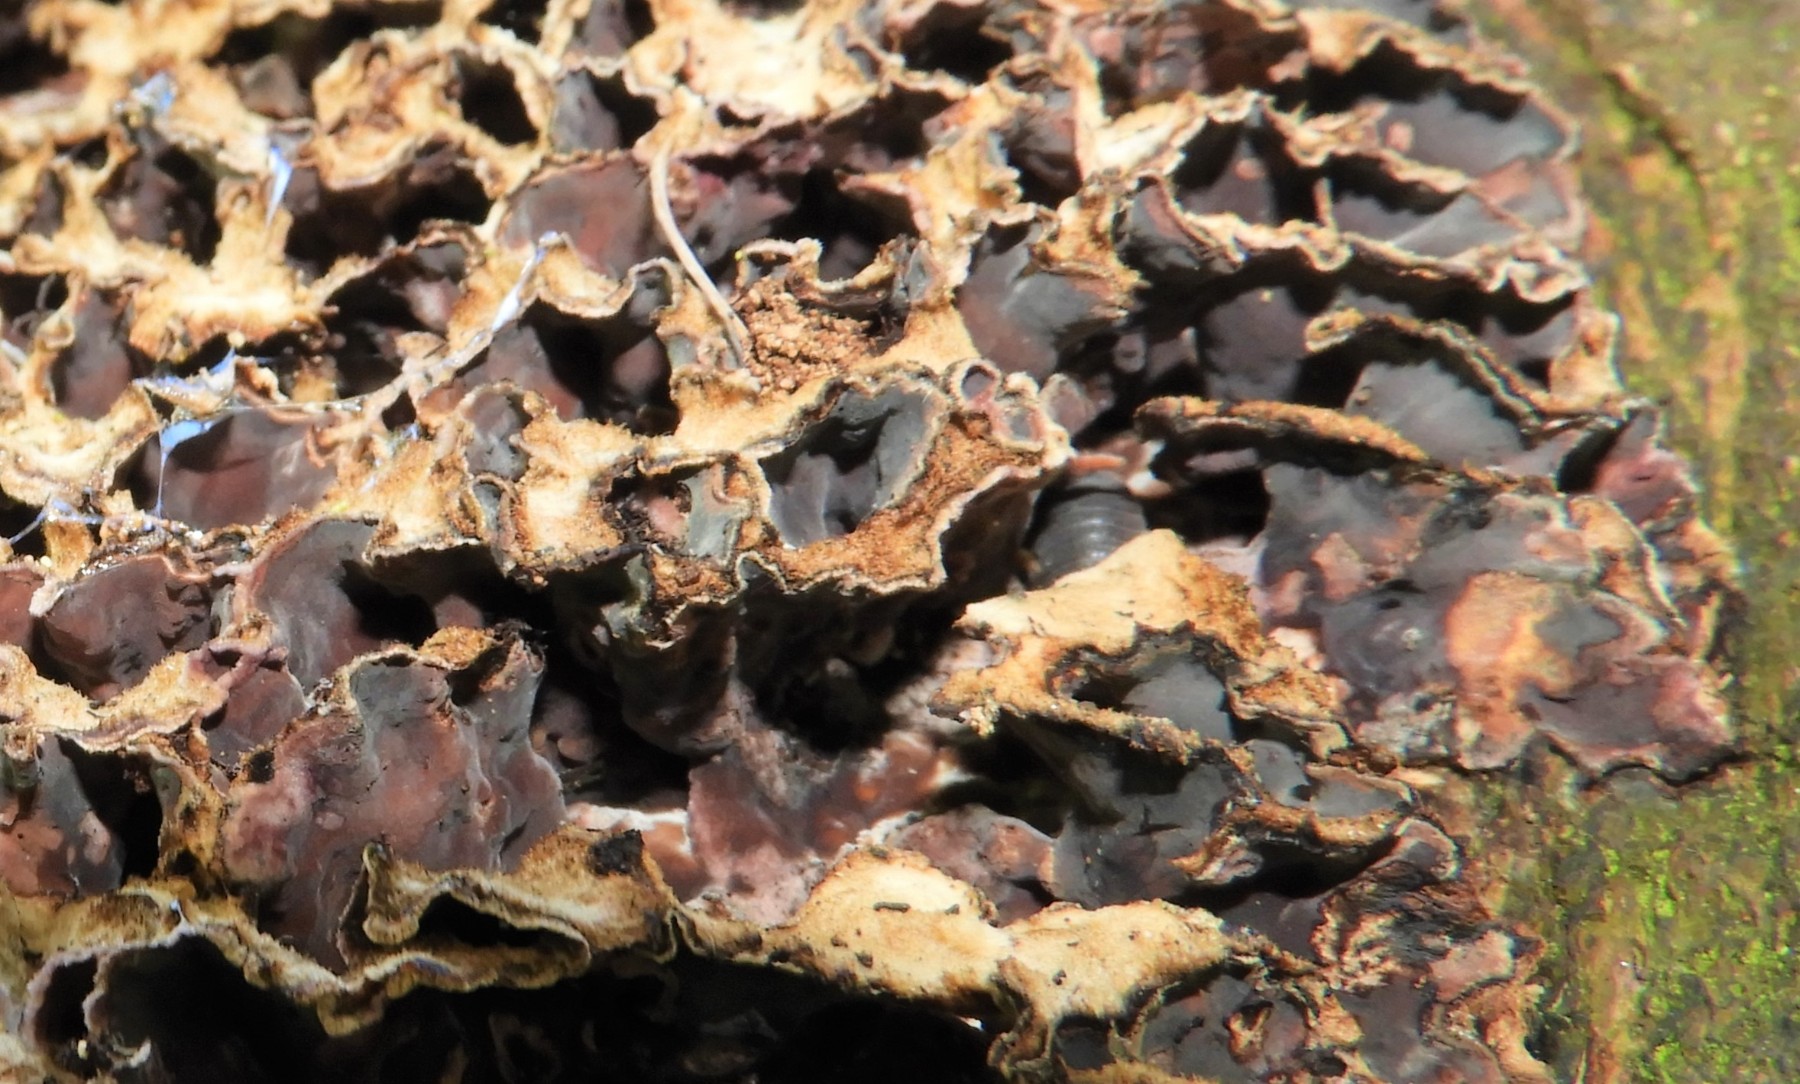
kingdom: Fungi
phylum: Basidiomycota
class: Agaricomycetes
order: Agaricales
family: Cyphellaceae
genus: Chondrostereum
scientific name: Chondrostereum purpureum
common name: purpurlædersvamp
